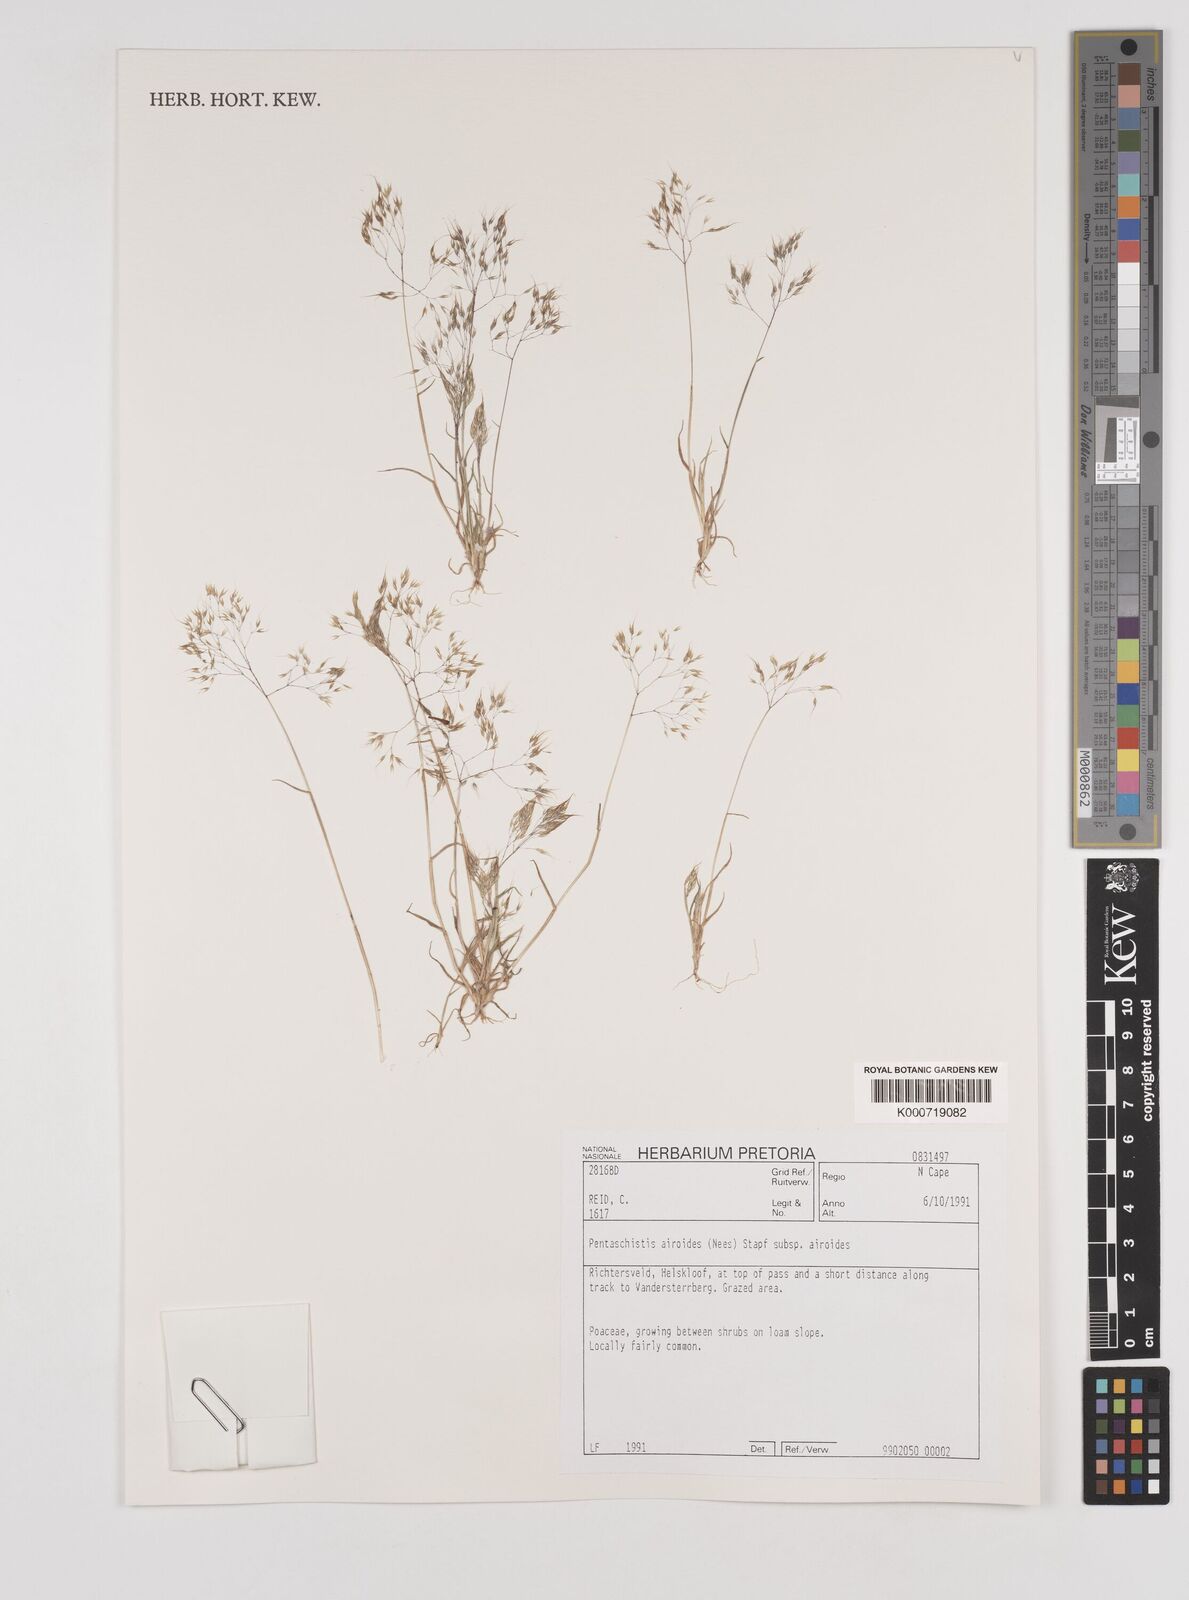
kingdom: Plantae
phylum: Tracheophyta
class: Liliopsida
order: Poales
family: Poaceae
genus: Pentameris
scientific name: Pentameris airoides
